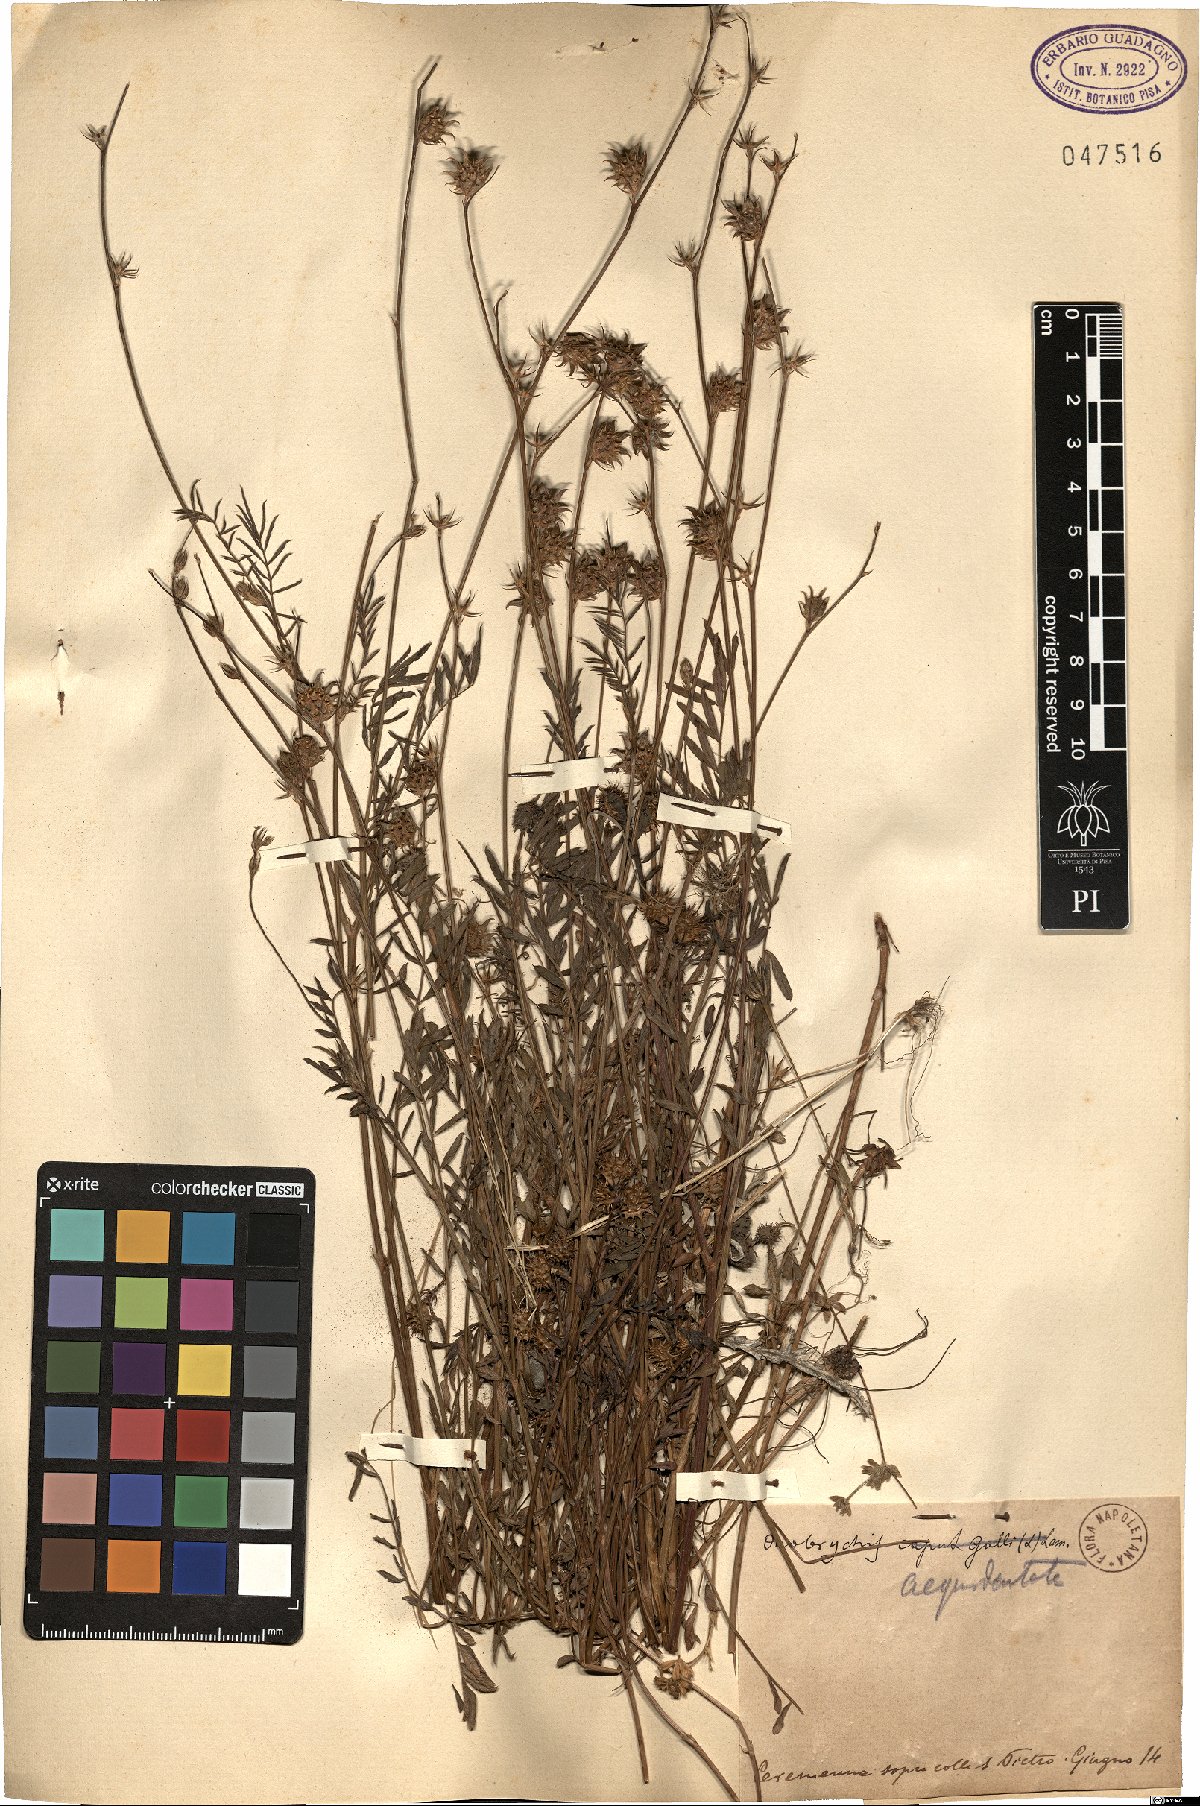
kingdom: Plantae
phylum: Tracheophyta
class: Magnoliopsida
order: Fabales
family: Fabaceae
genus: Onobrychis
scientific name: Onobrychis aequidentata
